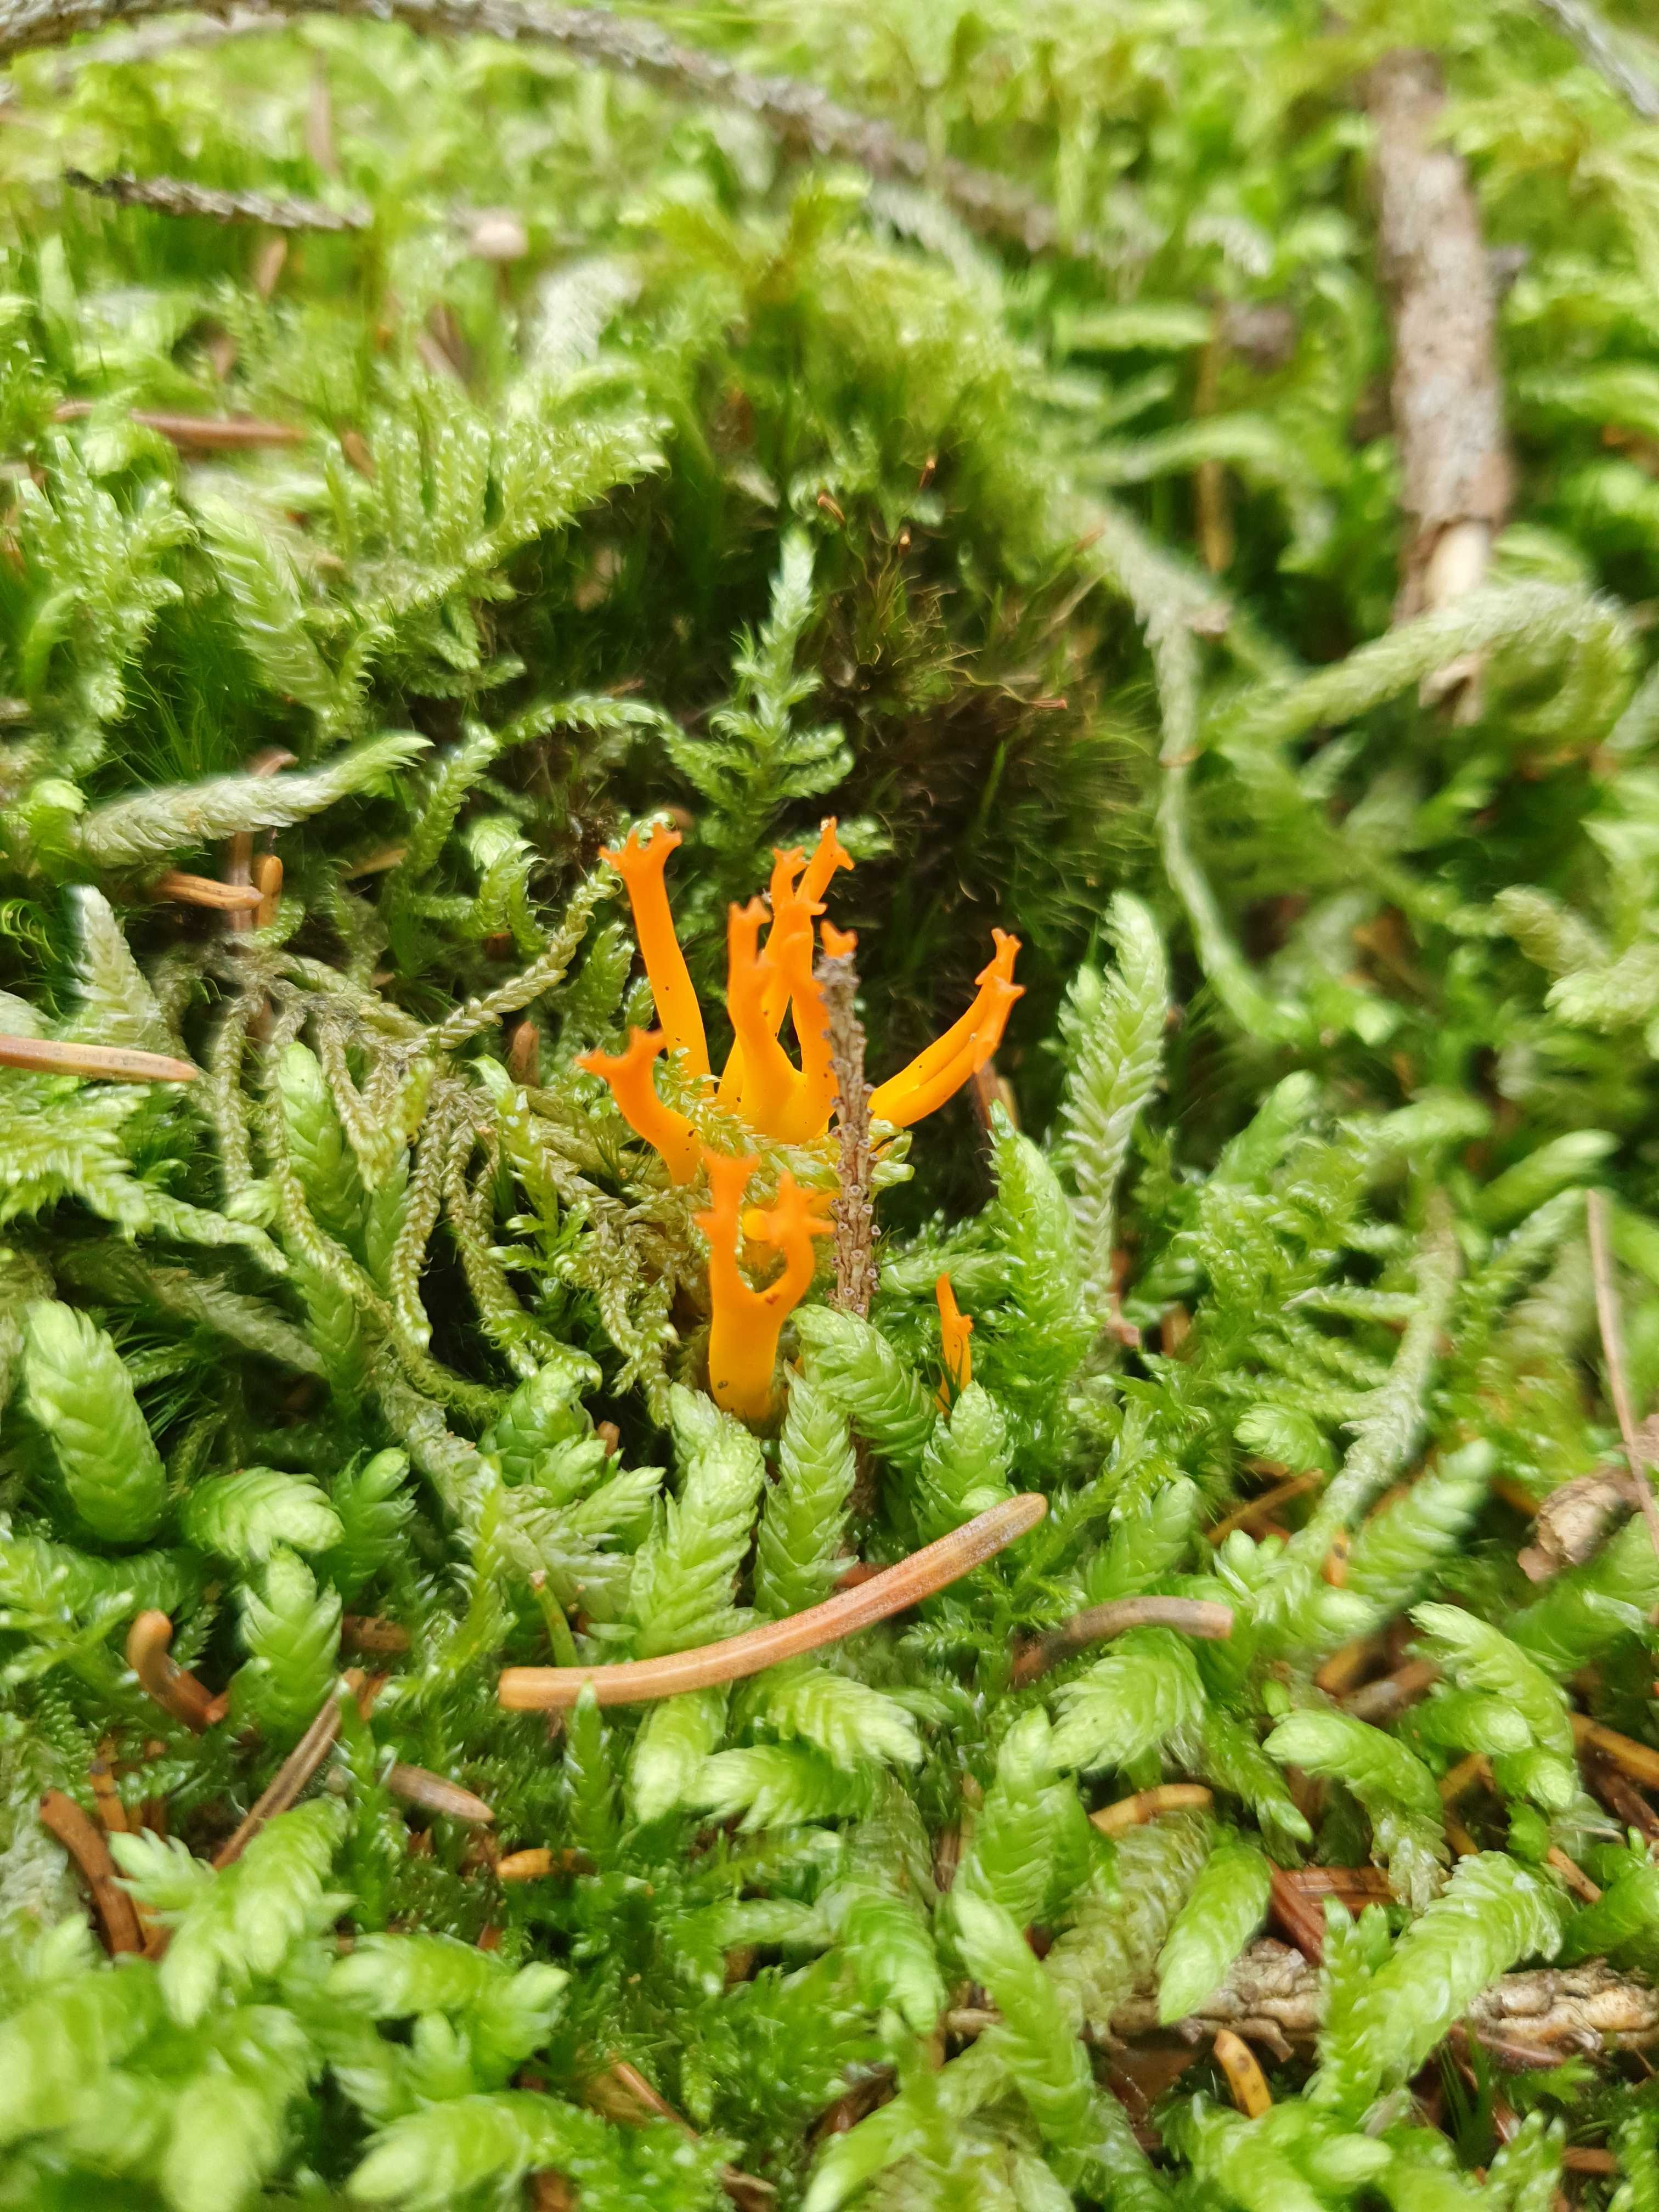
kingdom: Fungi
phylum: Basidiomycota
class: Dacrymycetes
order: Dacrymycetales
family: Dacrymycetaceae
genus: Calocera
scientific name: Calocera viscosa
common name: almindelig guldgaffel
